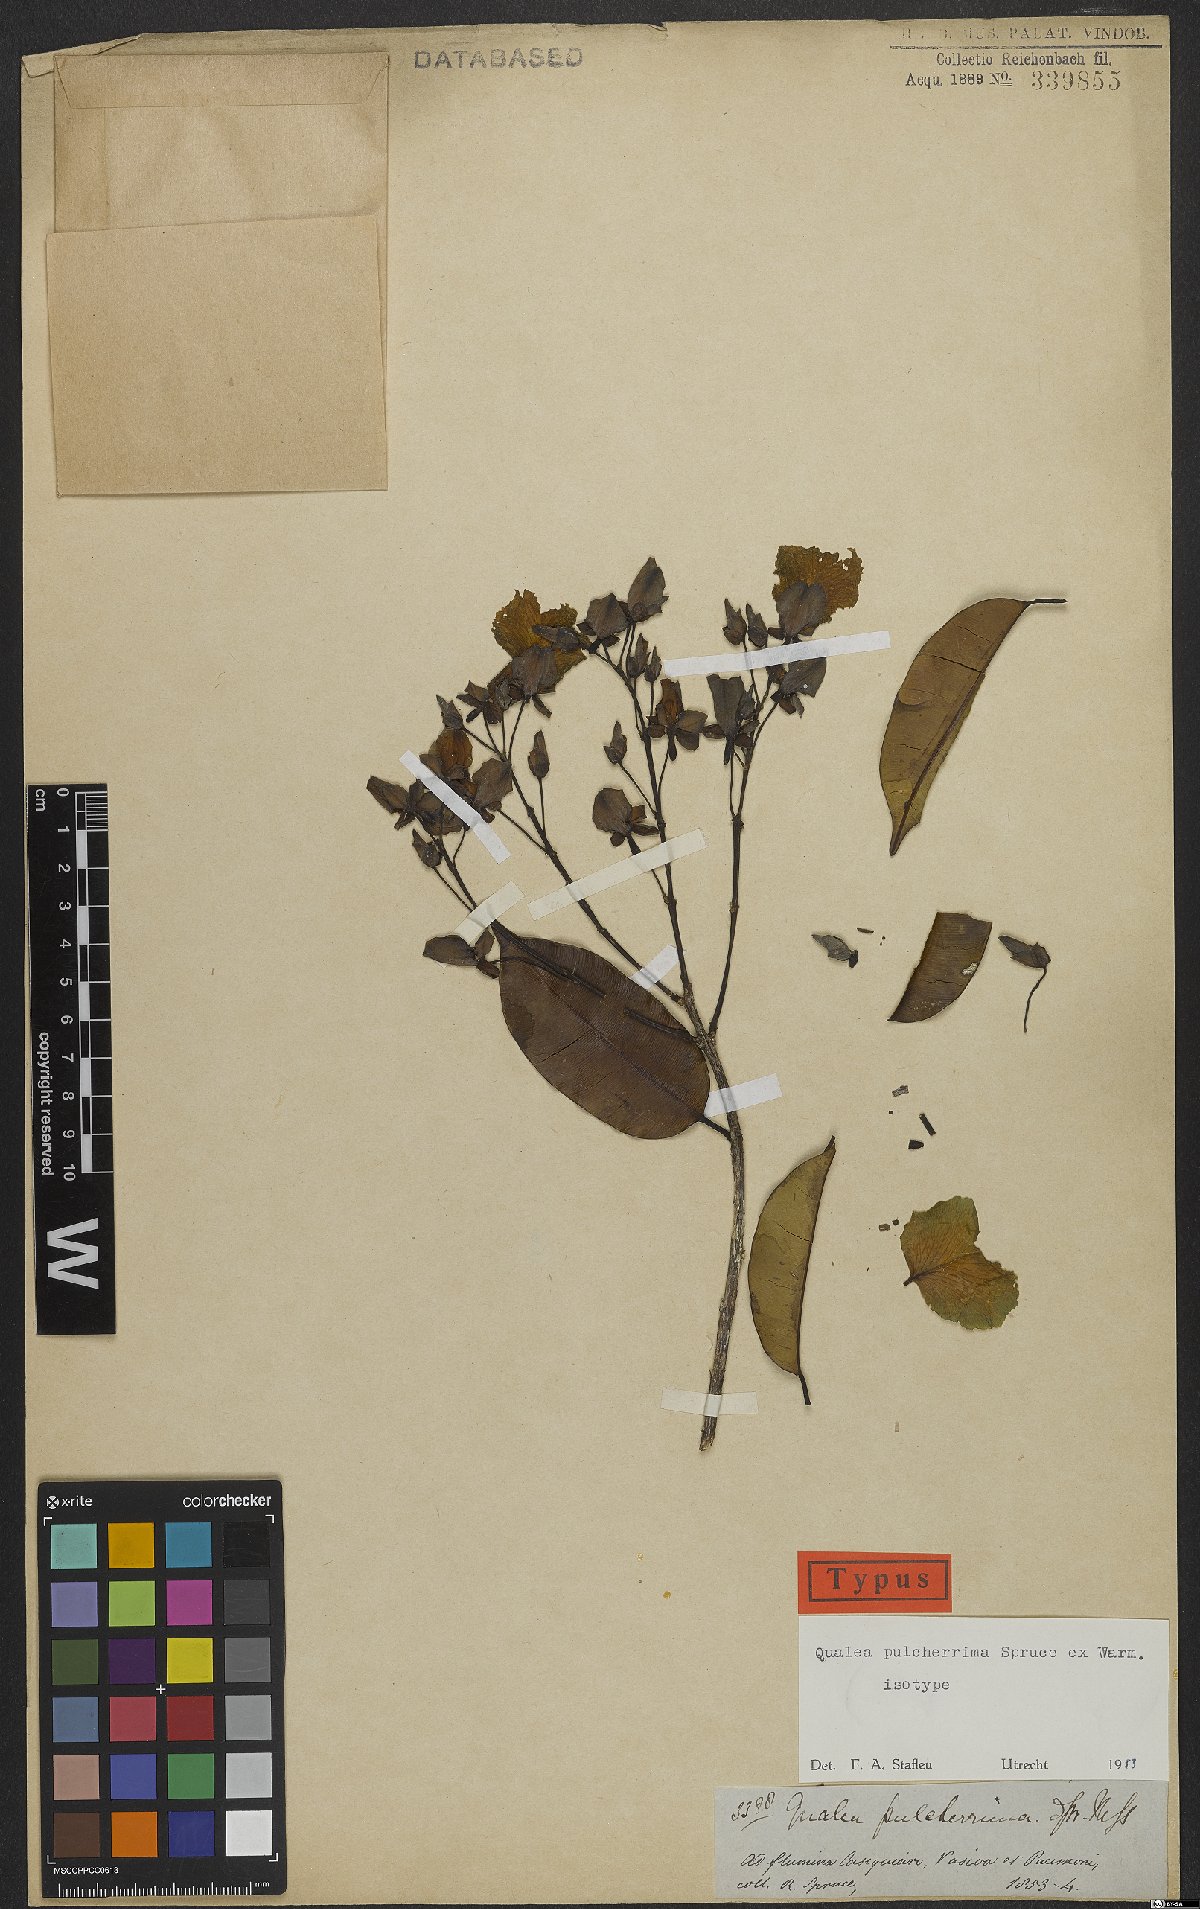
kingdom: Plantae
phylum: Tracheophyta
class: Magnoliopsida
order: Myrtales
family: Vochysiaceae
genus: Qualea
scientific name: Qualea pulcherrima
